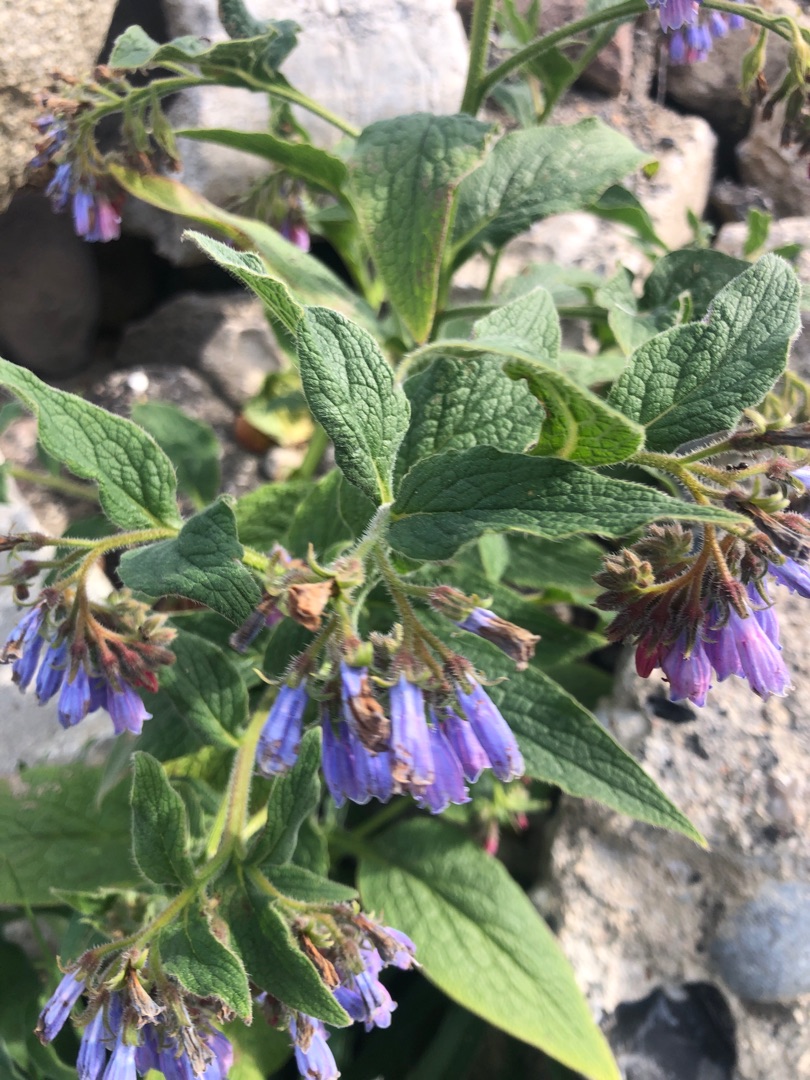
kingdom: Plantae
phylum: Tracheophyta
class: Magnoliopsida
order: Boraginales
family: Boraginaceae
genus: Symphytum
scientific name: Symphytum uplandicum
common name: Foder-kulsukker
